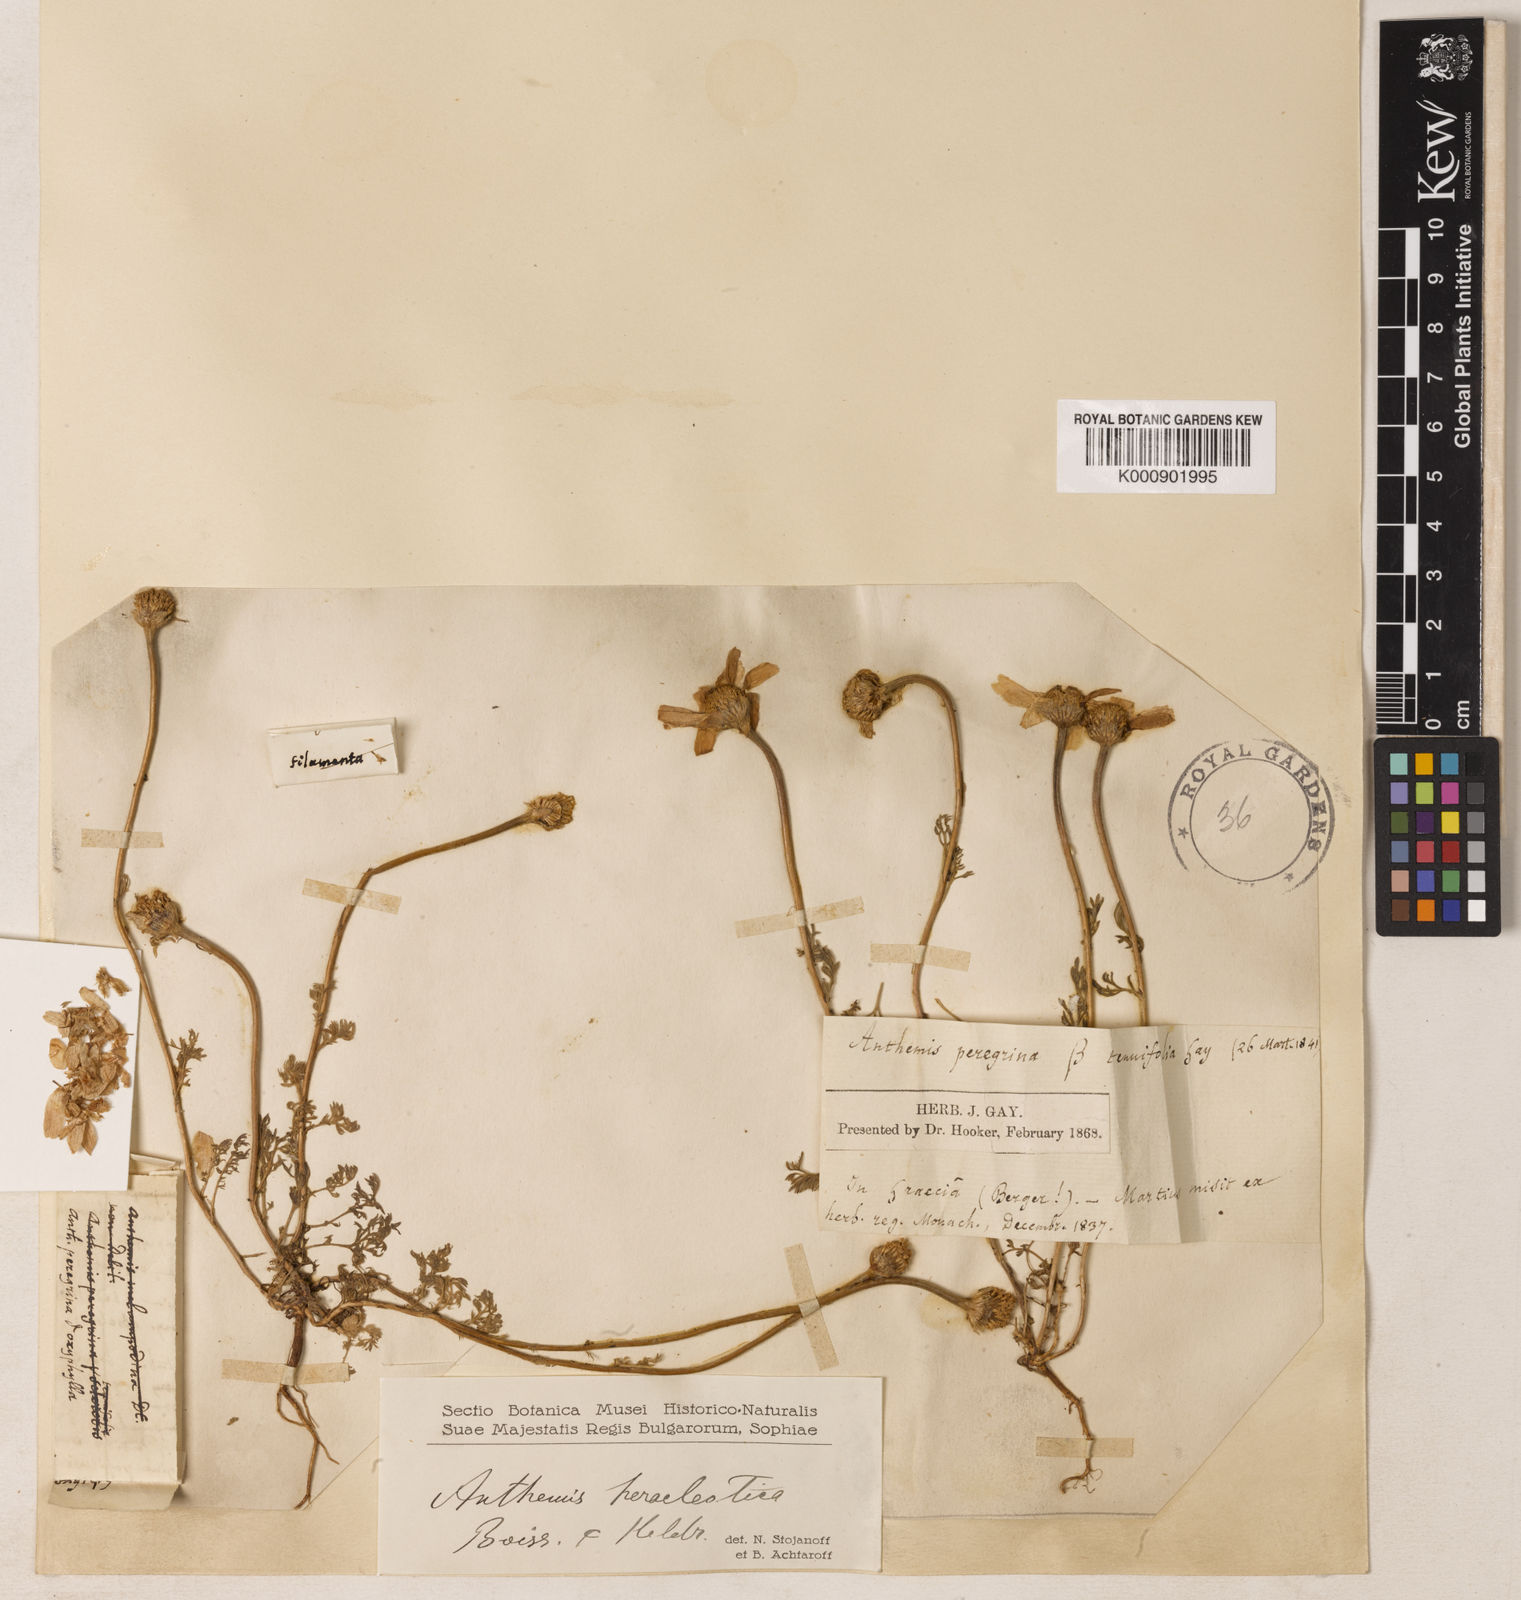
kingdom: Plantae
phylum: Tracheophyta
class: Magnoliopsida
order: Asterales
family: Asteraceae
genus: Anthemis
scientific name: Anthemis tomentosa
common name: Woolly chamomile
